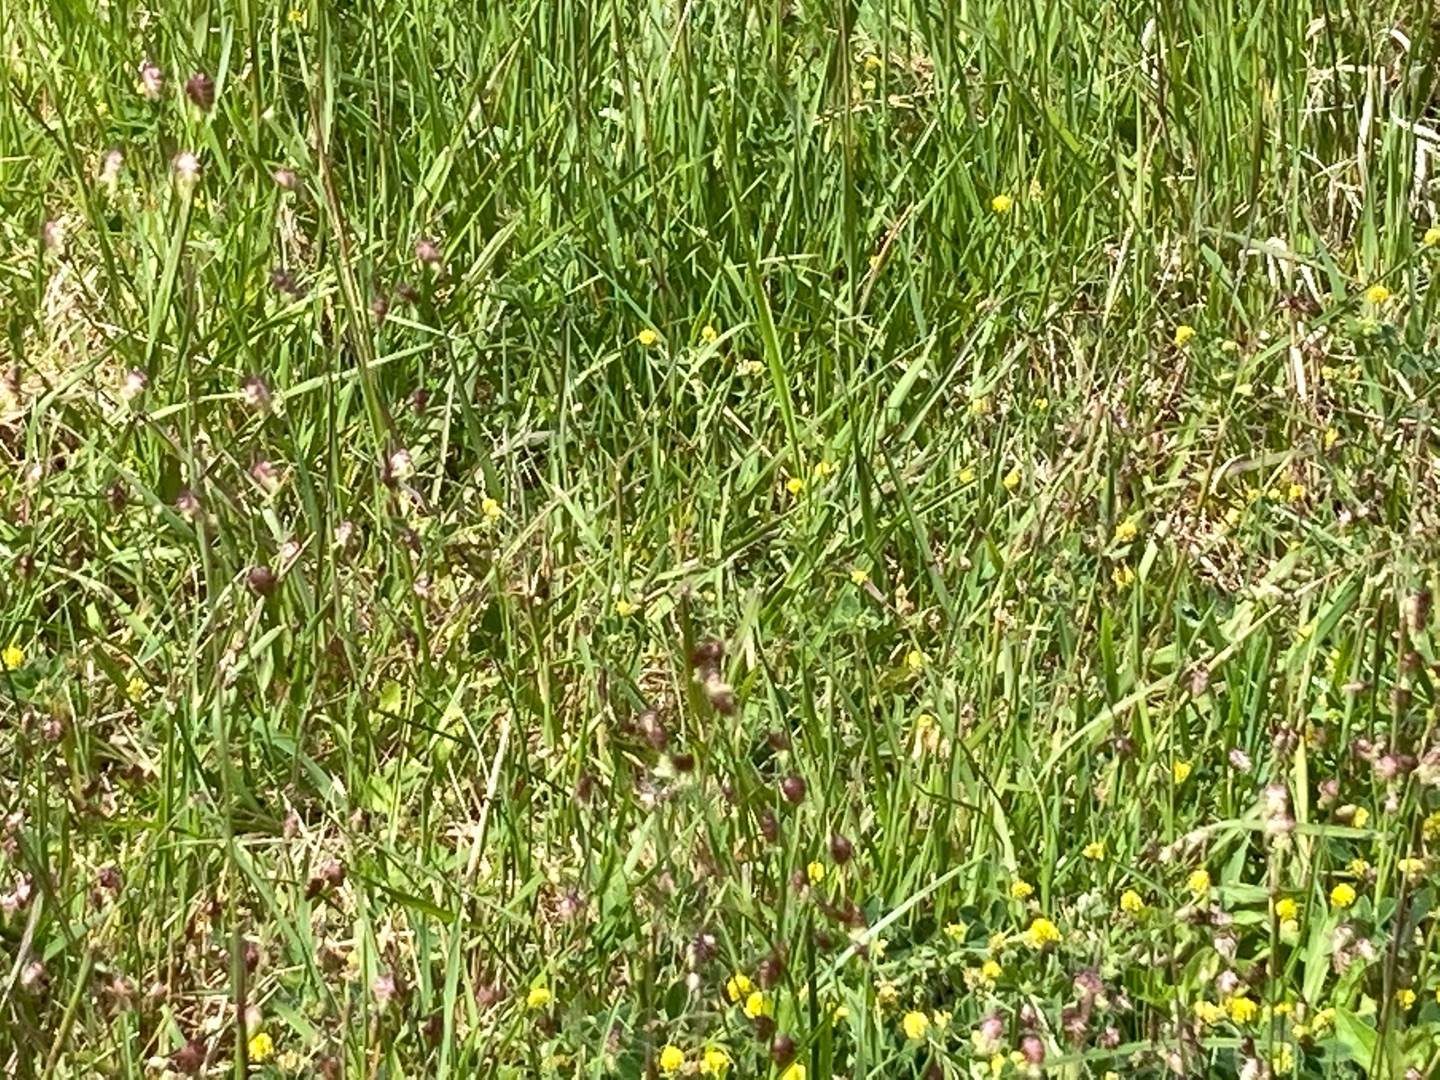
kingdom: Plantae
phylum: Tracheophyta
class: Liliopsida
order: Poales
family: Poaceae
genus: Briza
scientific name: Briza media
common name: Hjertegræs
